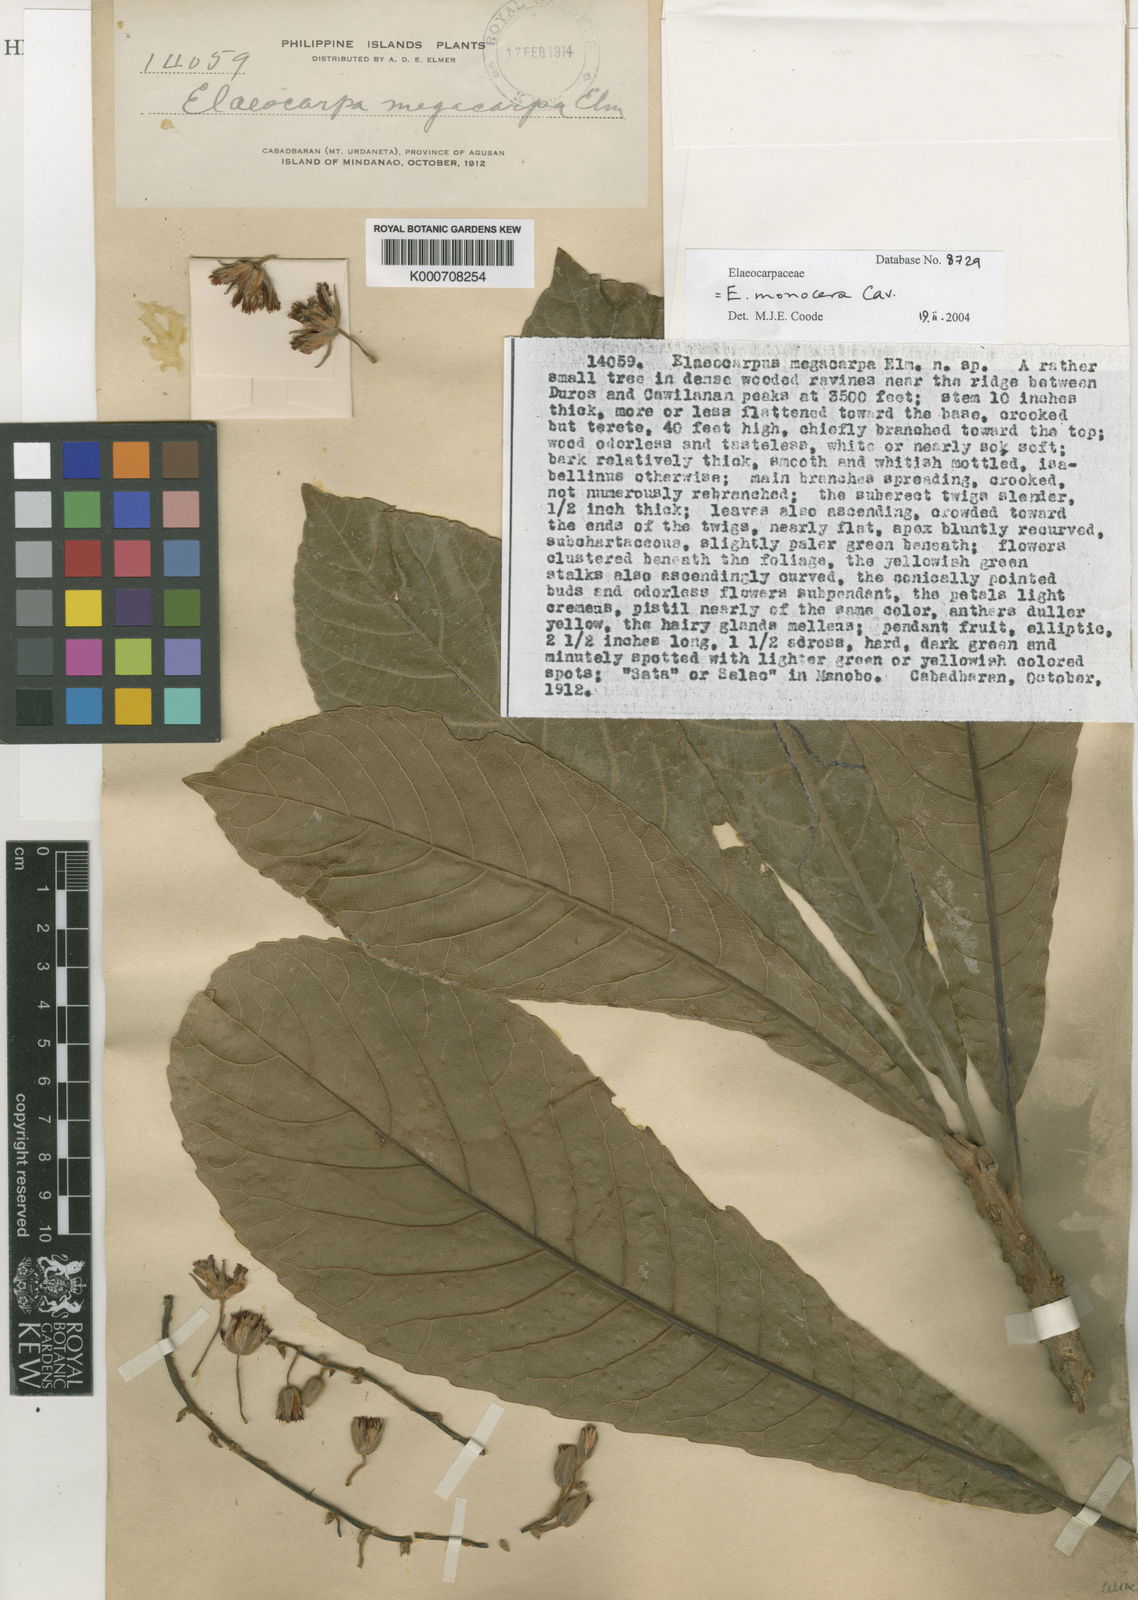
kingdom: Plantae
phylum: Tracheophyta
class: Magnoliopsida
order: Oxalidales
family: Elaeocarpaceae
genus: Elaeocarpus
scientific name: Elaeocarpus monocera
